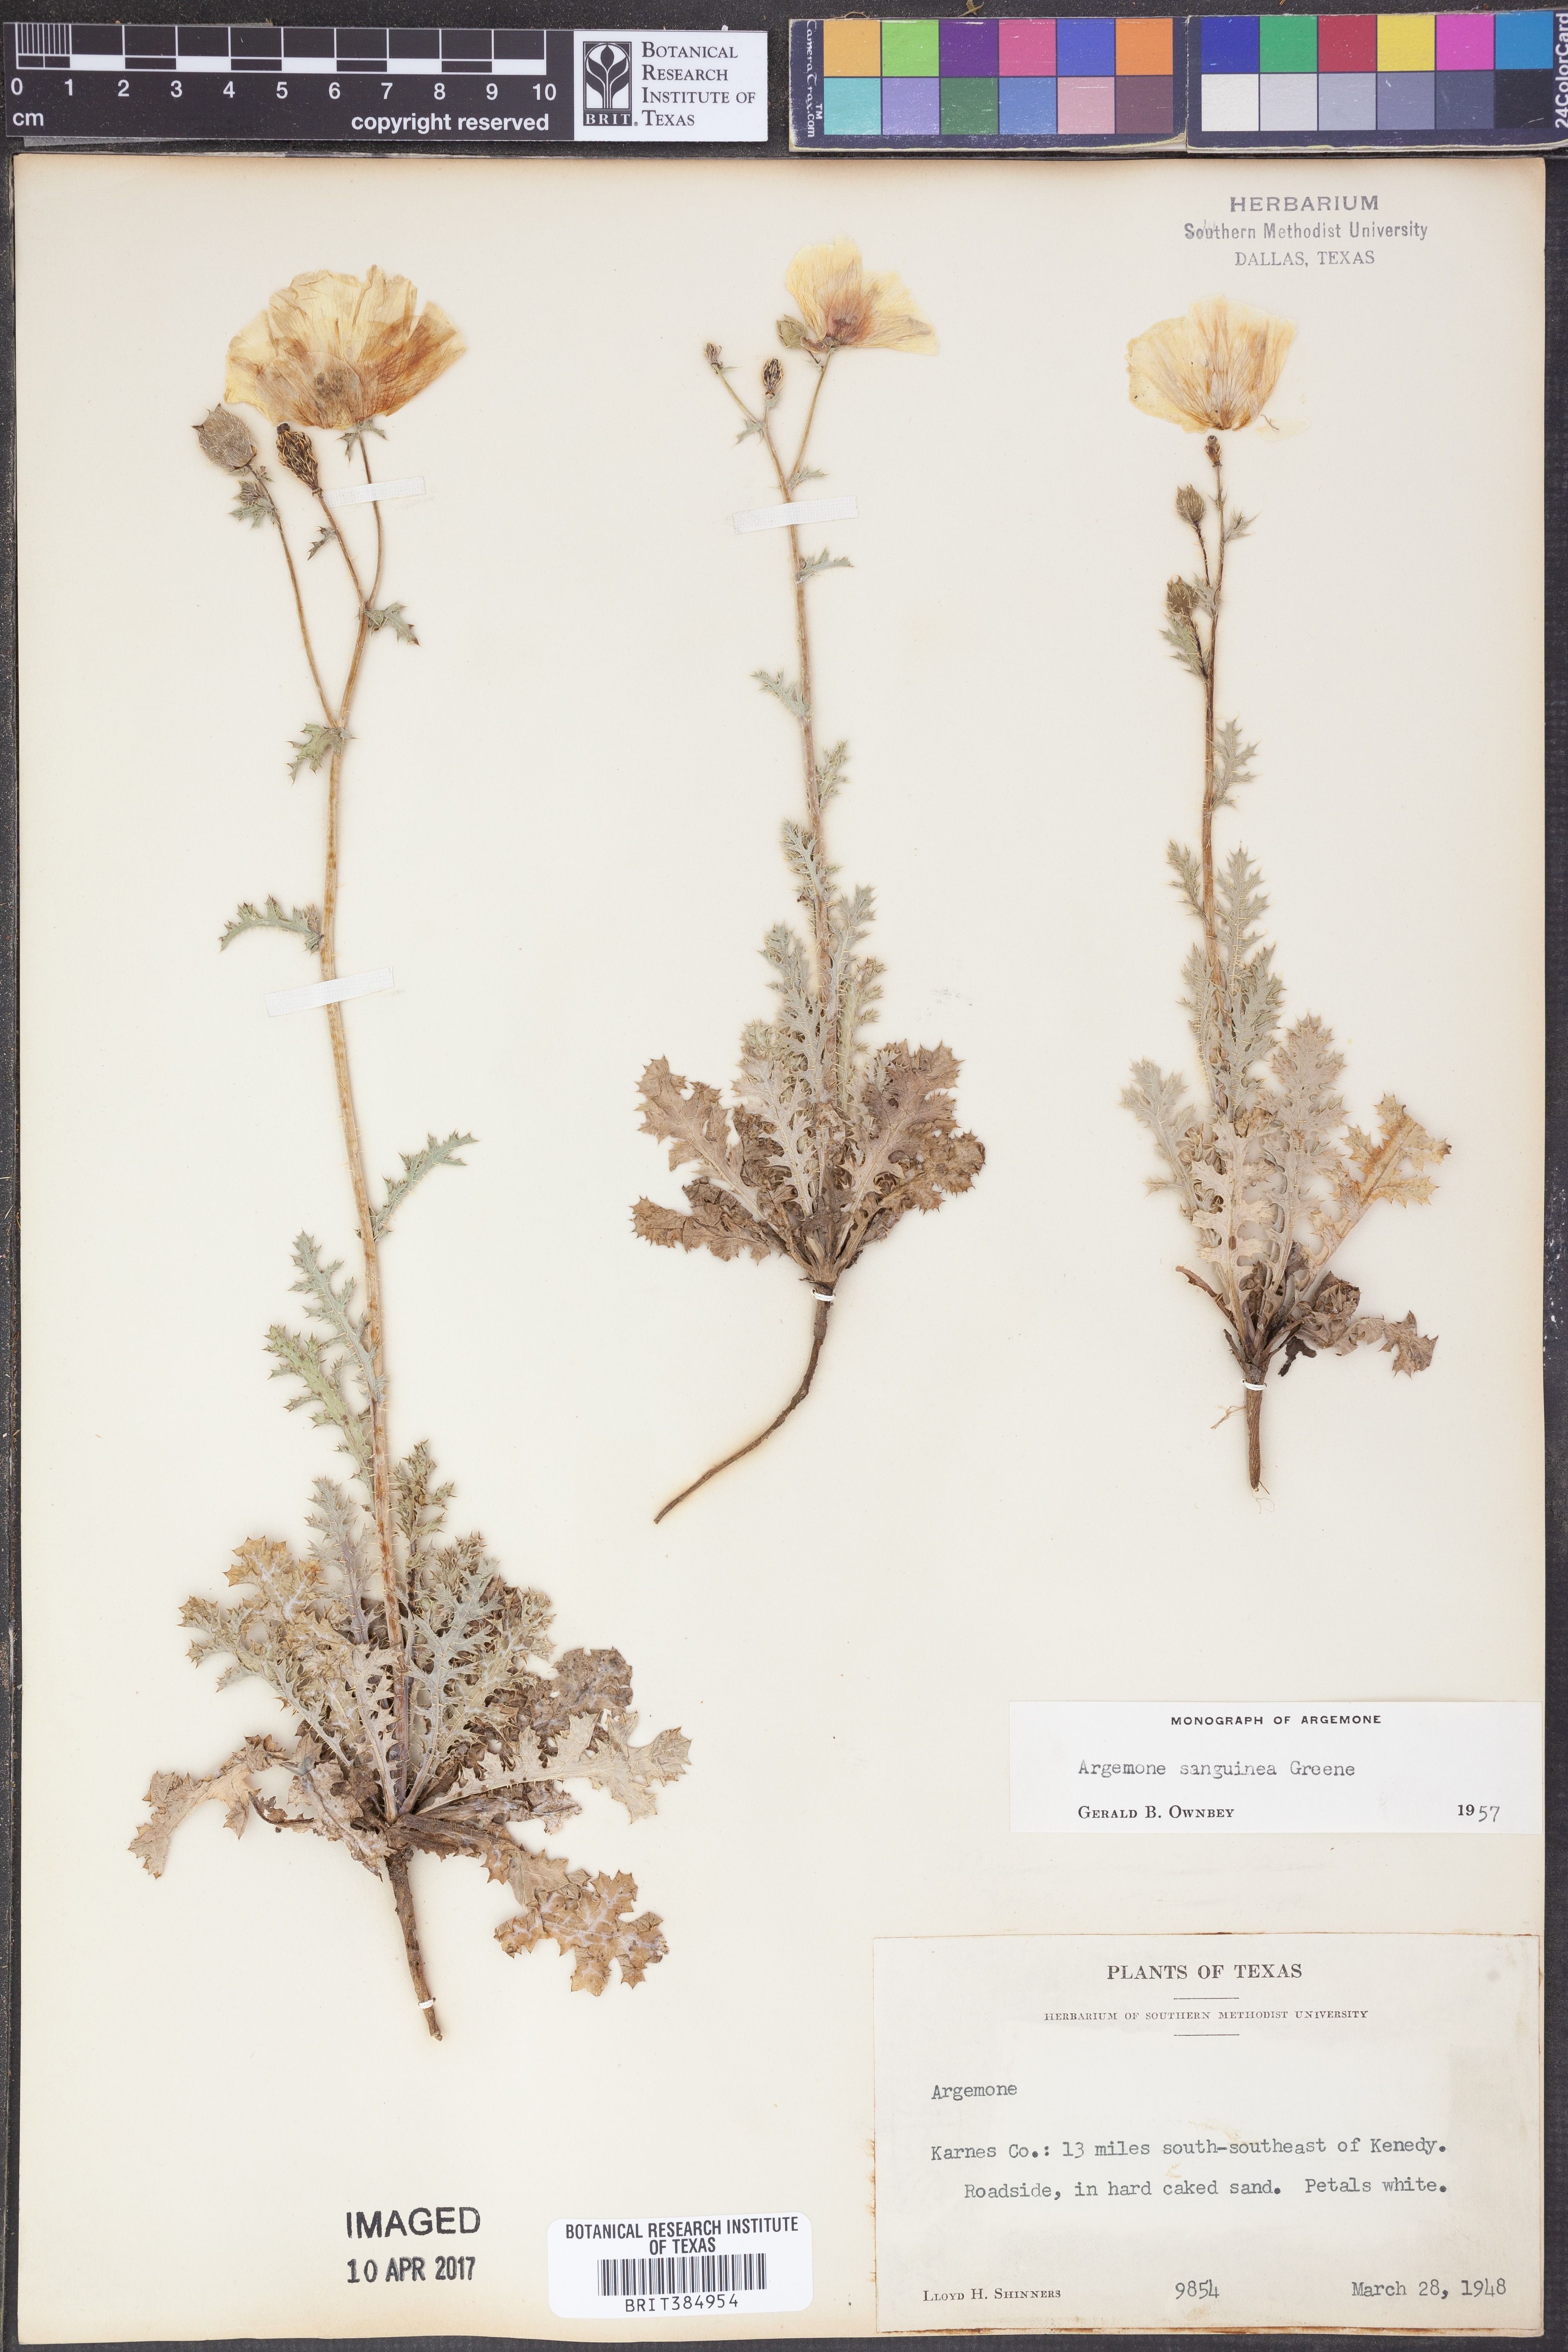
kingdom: Plantae
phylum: Tracheophyta
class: Magnoliopsida
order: Ranunculales
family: Papaveraceae
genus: Argemone
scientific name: Argemone sanguinea
